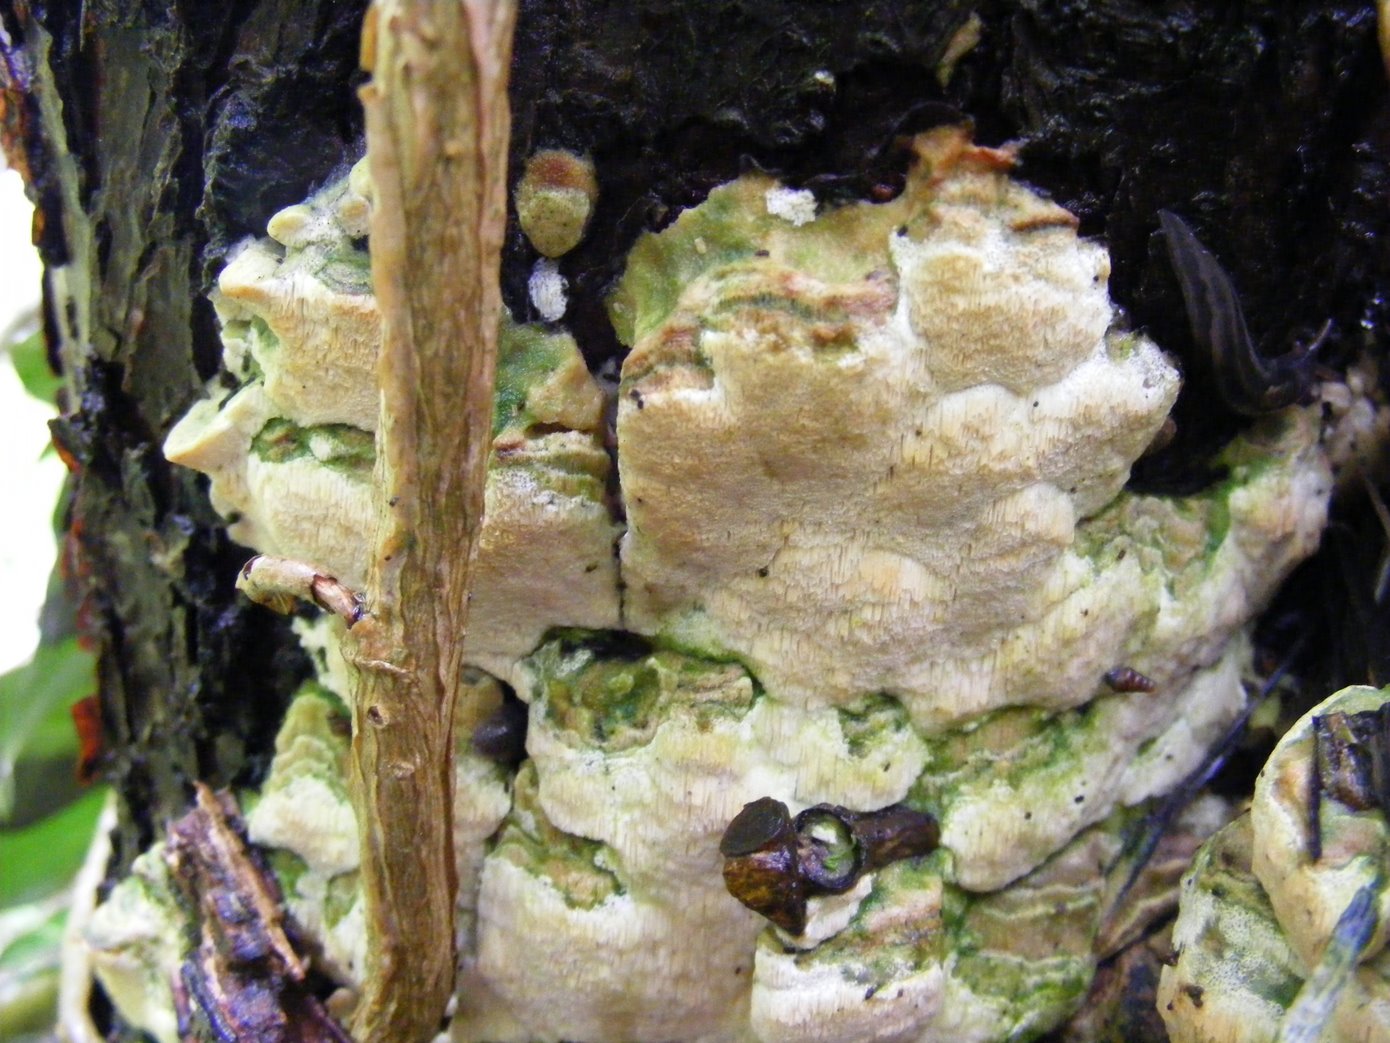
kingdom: Fungi
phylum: Basidiomycota
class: Agaricomycetes
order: Hymenochaetales
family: Oxyporaceae
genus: Oxyporus
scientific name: Oxyporus populinus
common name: sammenvokset trylleporesvamp
